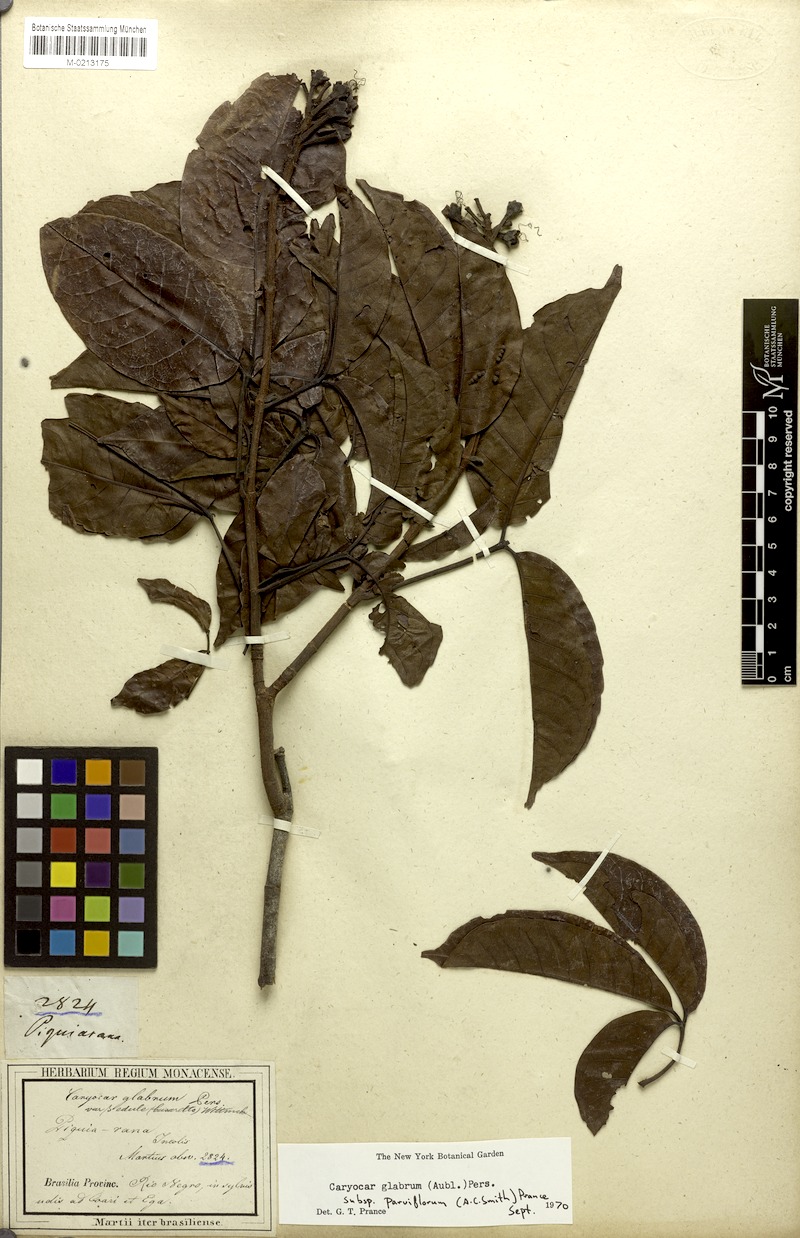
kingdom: Plantae
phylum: Tracheophyta
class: Magnoliopsida
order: Malpighiales
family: Caryocaraceae
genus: Caryocar
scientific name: Caryocar glabrum
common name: Bat's souari
